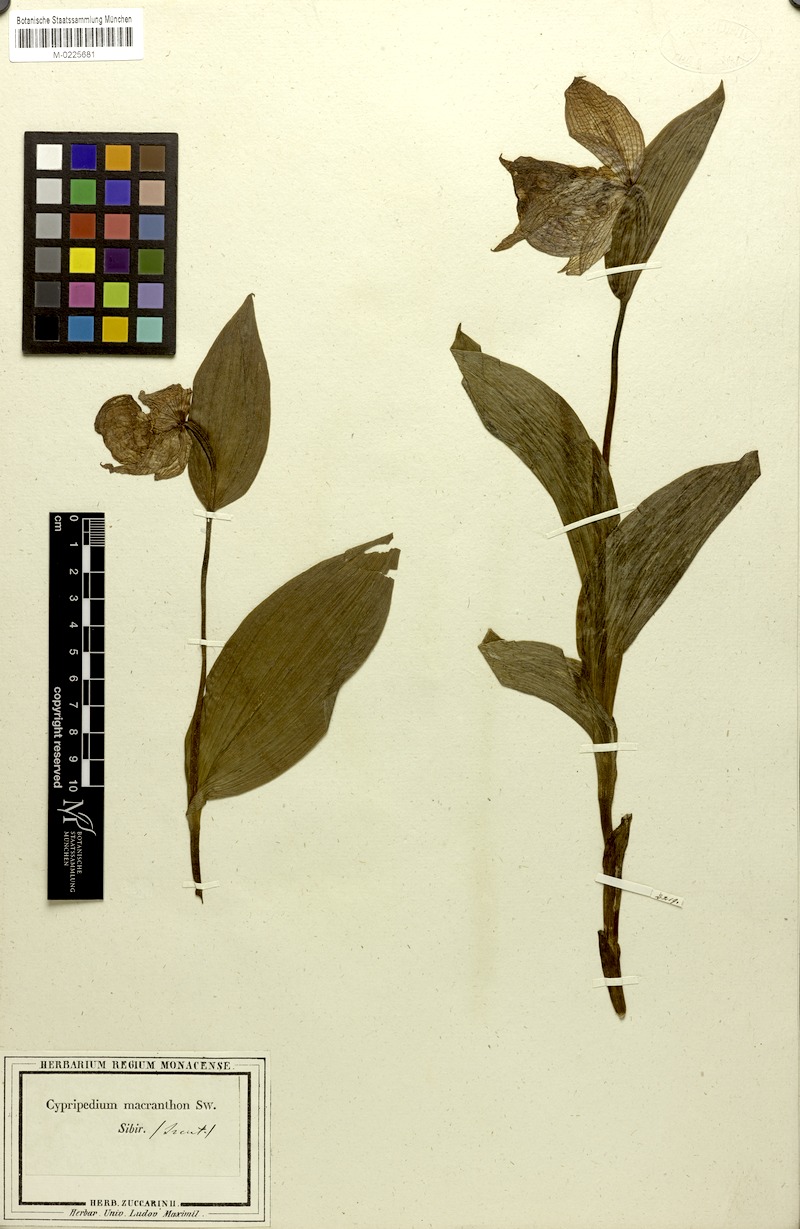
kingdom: Plantae
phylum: Tracheophyta
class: Liliopsida
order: Asparagales
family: Orchidaceae
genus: Cypripedium
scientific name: Cypripedium macranthon
